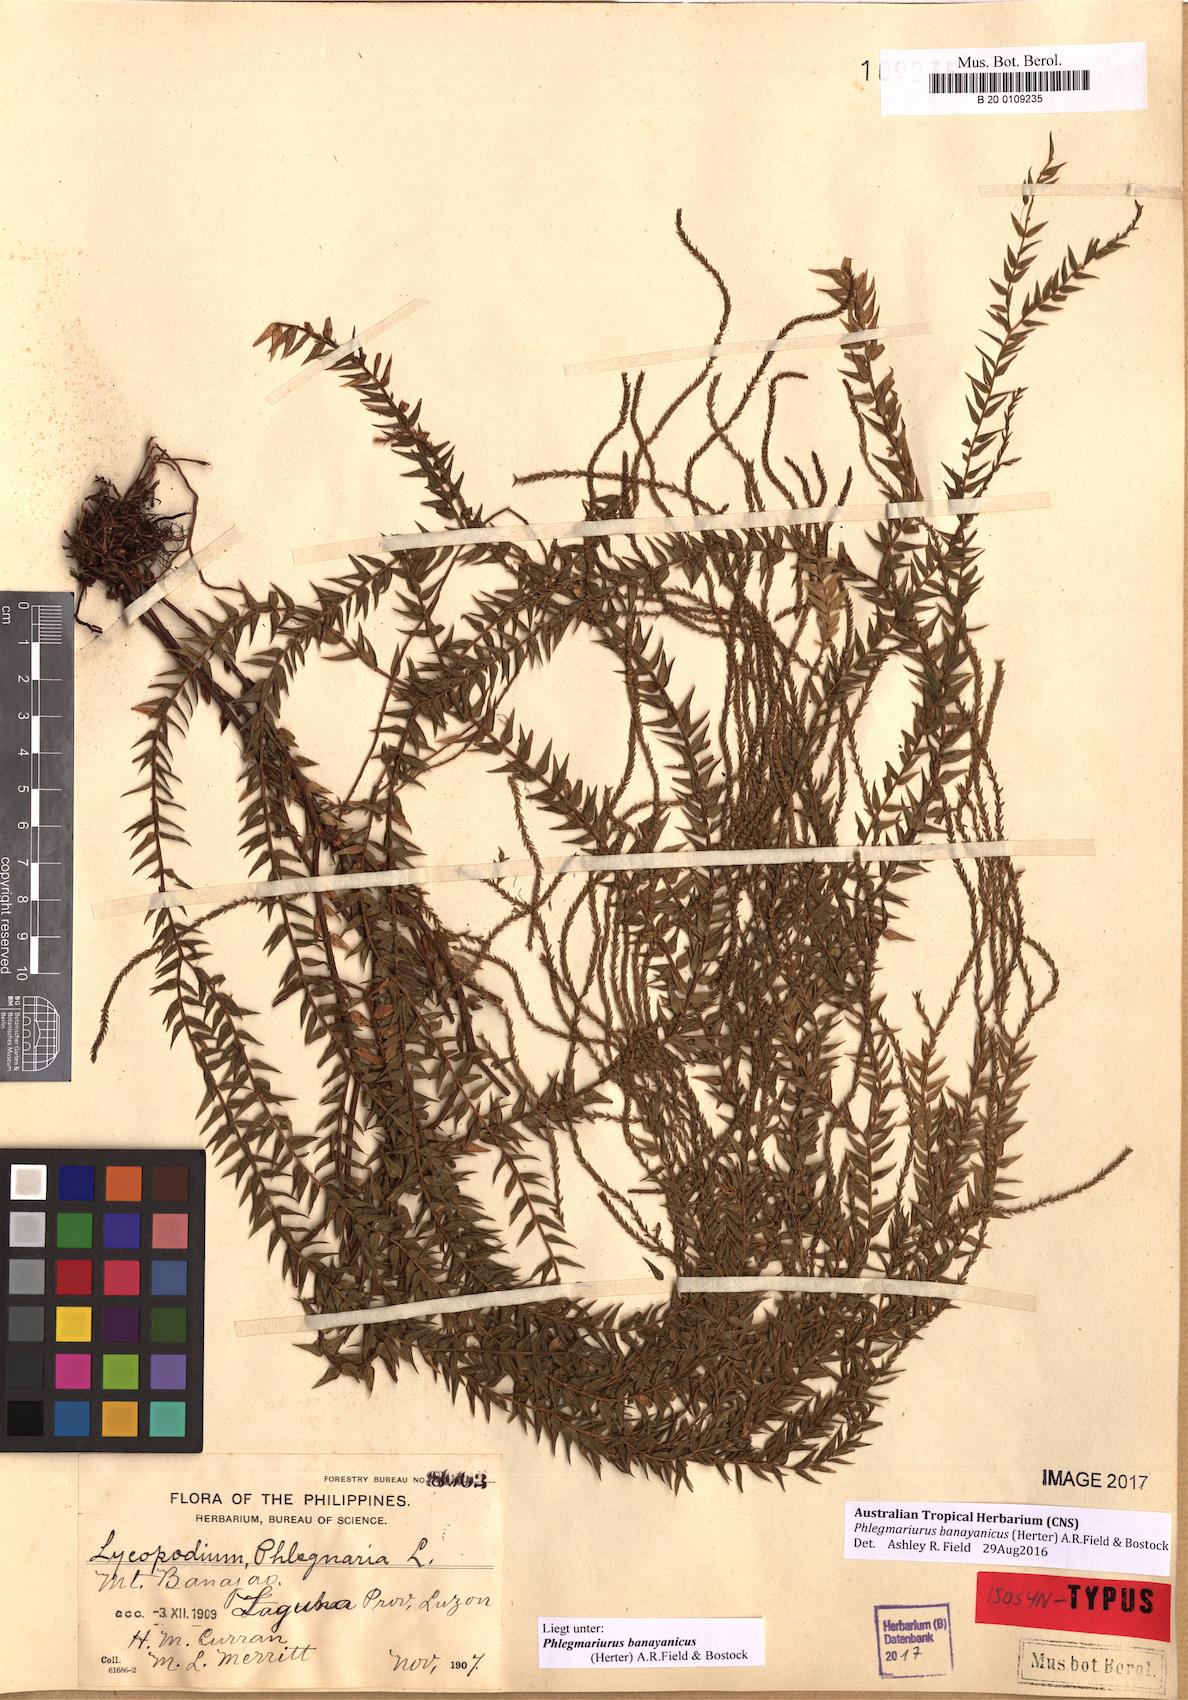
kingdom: Plantae
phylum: Tracheophyta
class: Lycopodiopsida
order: Lycopodiales
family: Lycopodiaceae
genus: Phlegmariurus
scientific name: Phlegmariurus banayanicus
